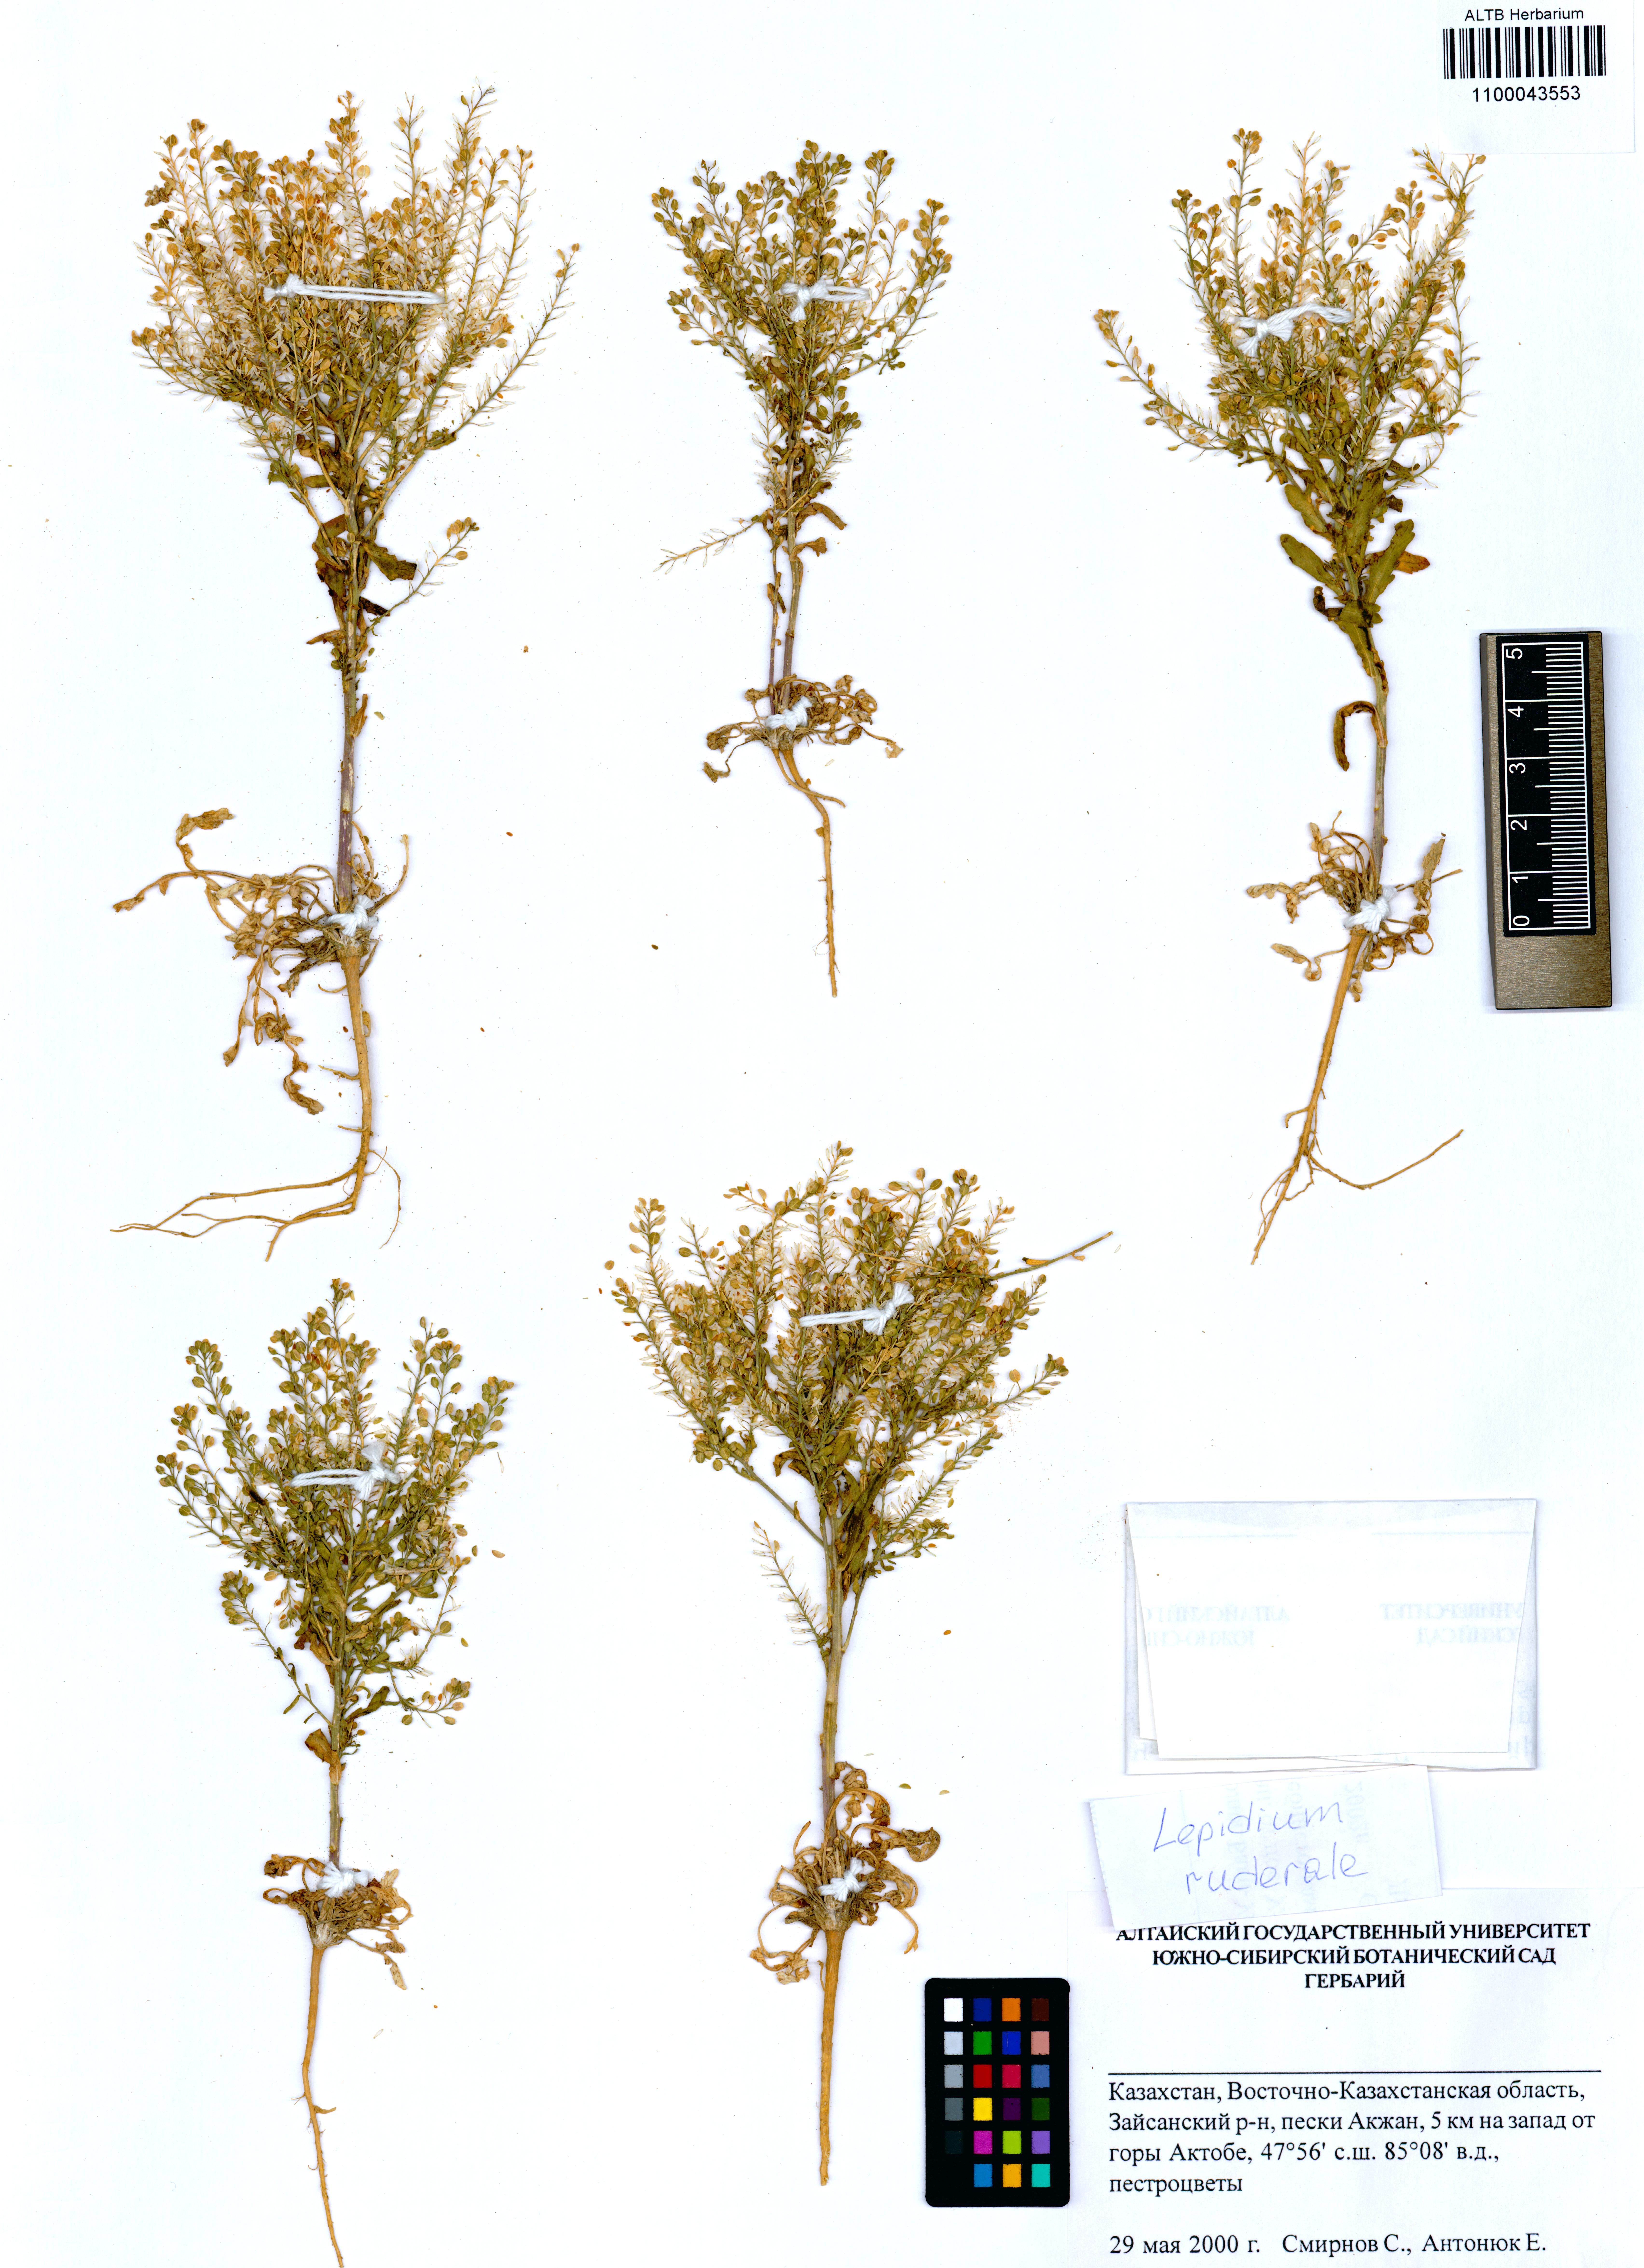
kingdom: Plantae
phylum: Tracheophyta
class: Magnoliopsida
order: Brassicales
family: Brassicaceae
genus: Lepidium
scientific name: Lepidium ruderale
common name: Narrow-leaved pepperwort
